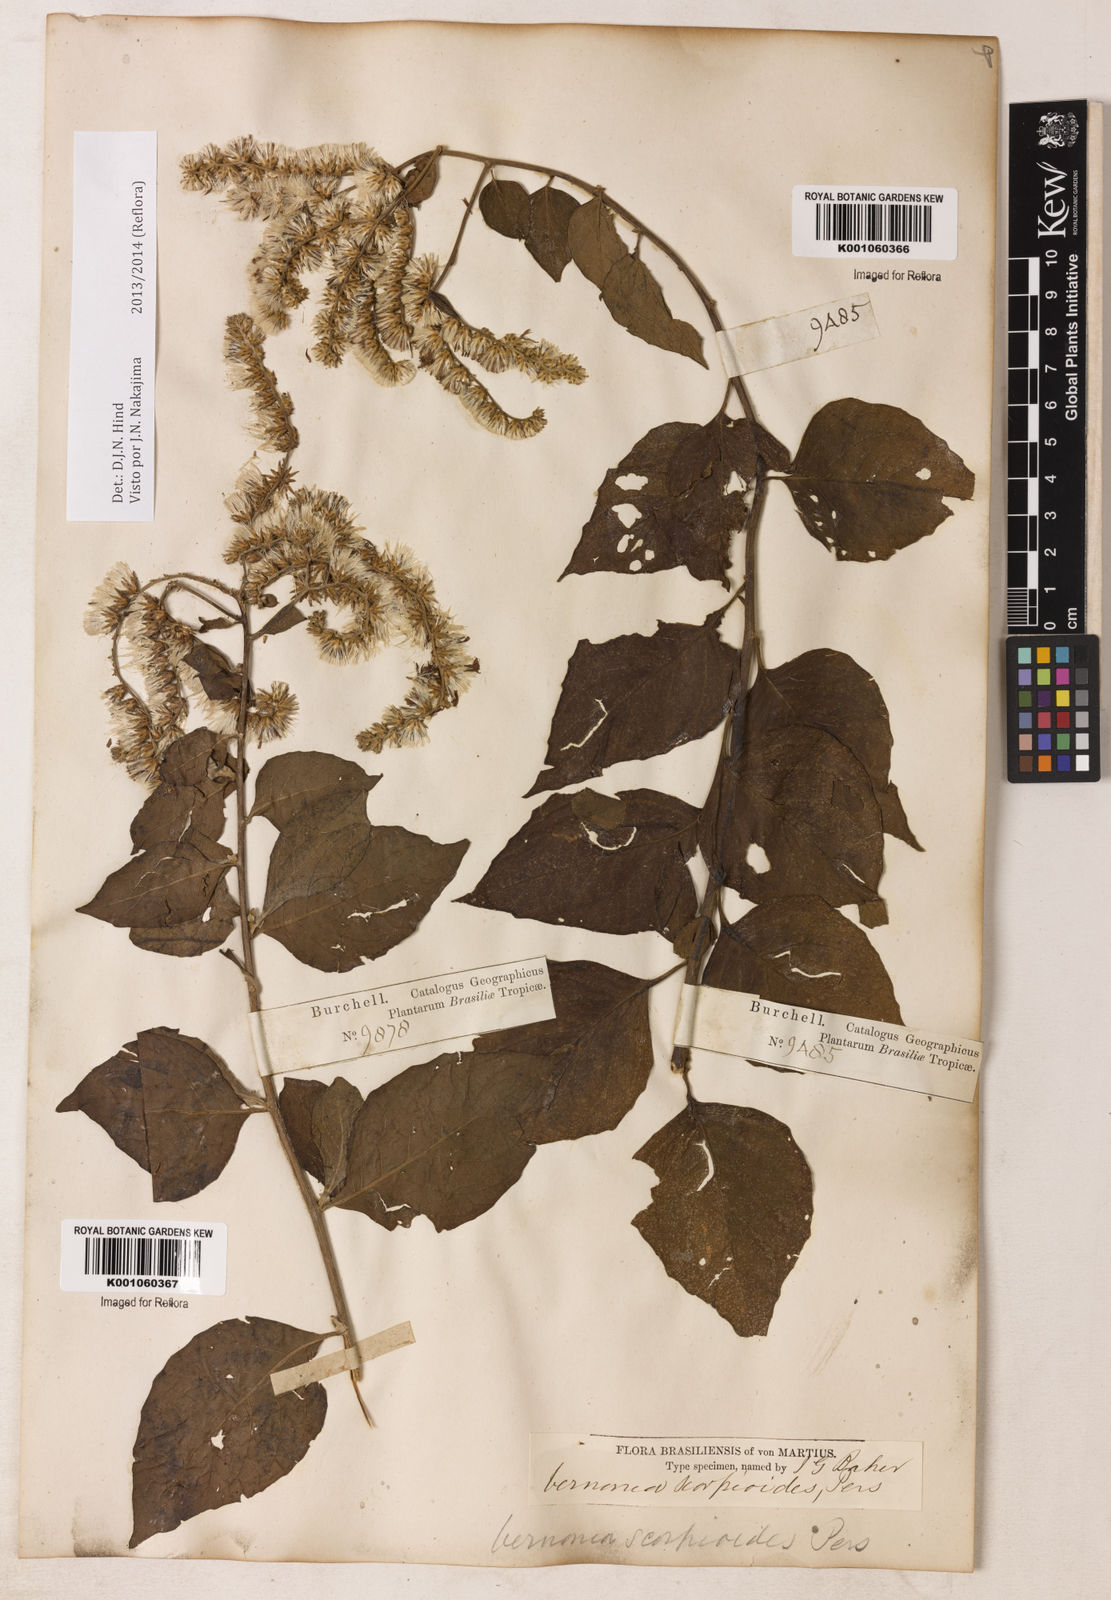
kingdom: Plantae
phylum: Tracheophyta
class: Magnoliopsida
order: Asterales
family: Asteraceae
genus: Cyrtocymura
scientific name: Cyrtocymura scorpioides
